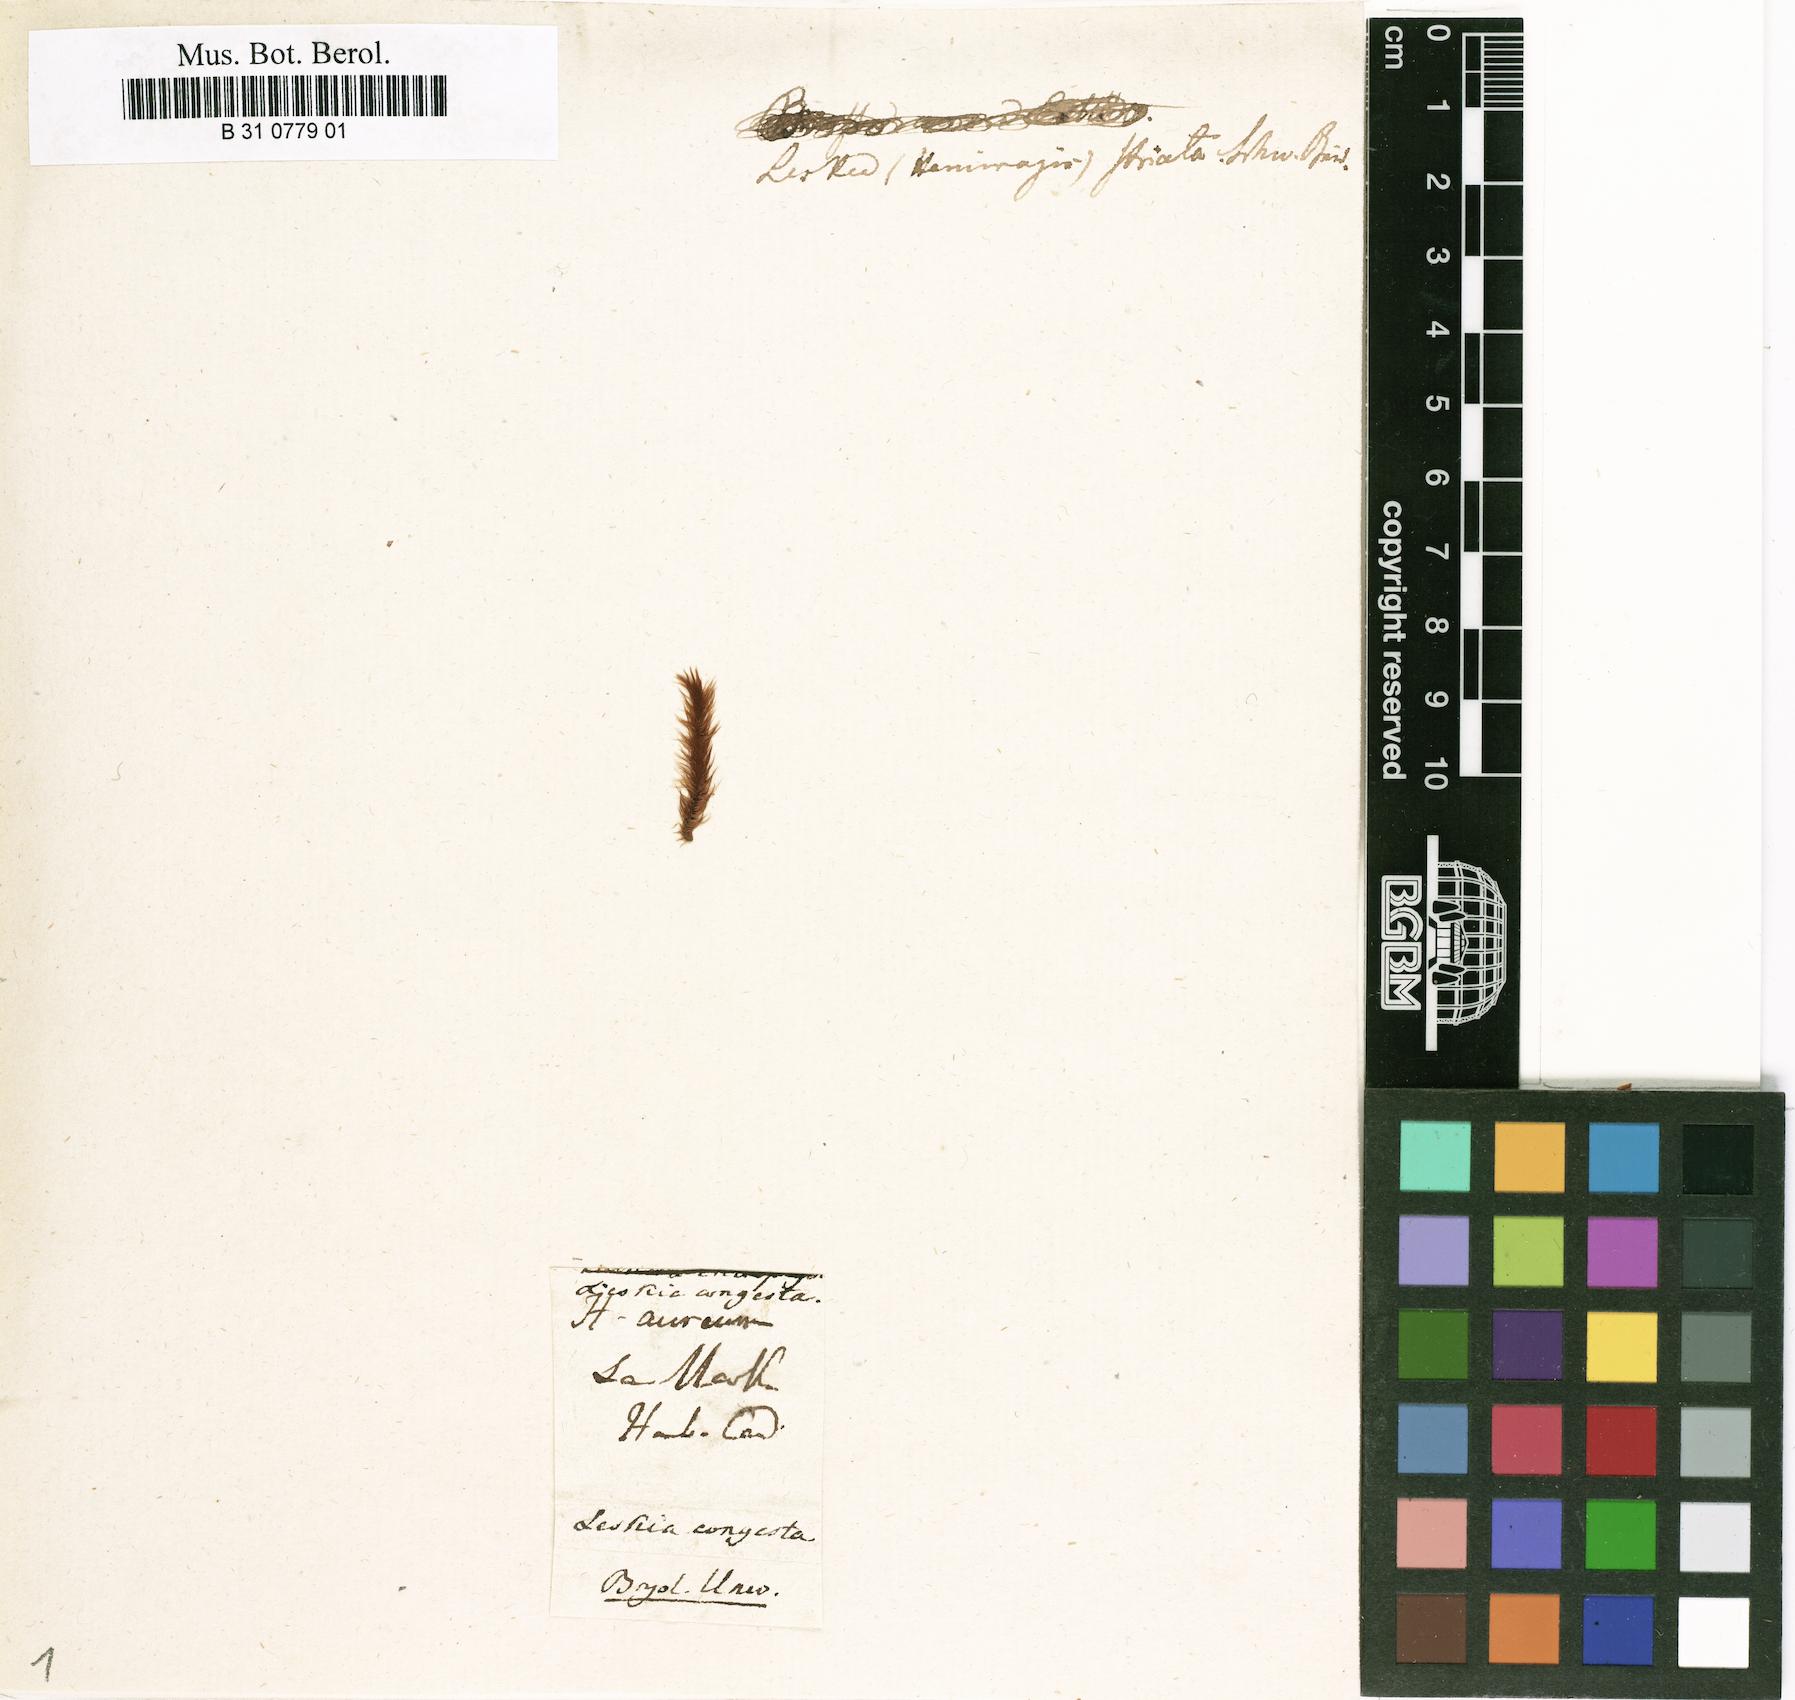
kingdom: Plantae
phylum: Bryophyta
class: Bryopsida
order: Hypnales
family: Brachytheciaceae
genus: Palamocladium
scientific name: Palamocladium congestum
